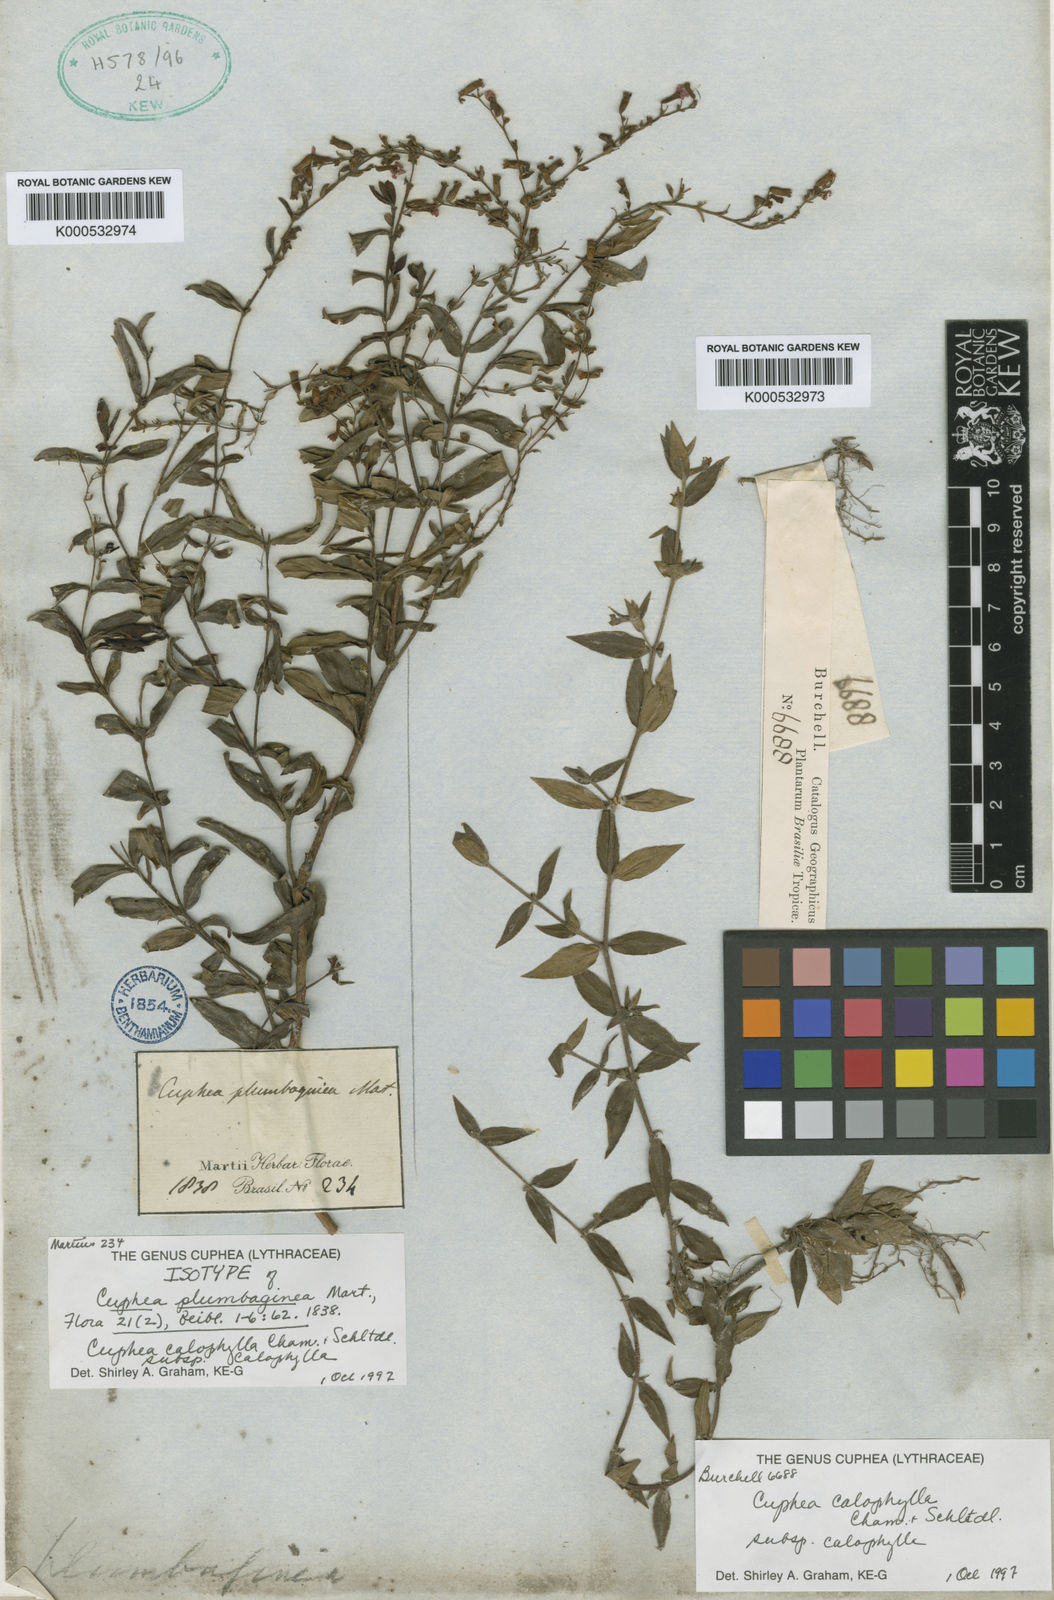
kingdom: Plantae
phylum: Tracheophyta
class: Magnoliopsida
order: Myrtales
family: Lythraceae
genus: Cuphea
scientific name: Cuphea calophylla
